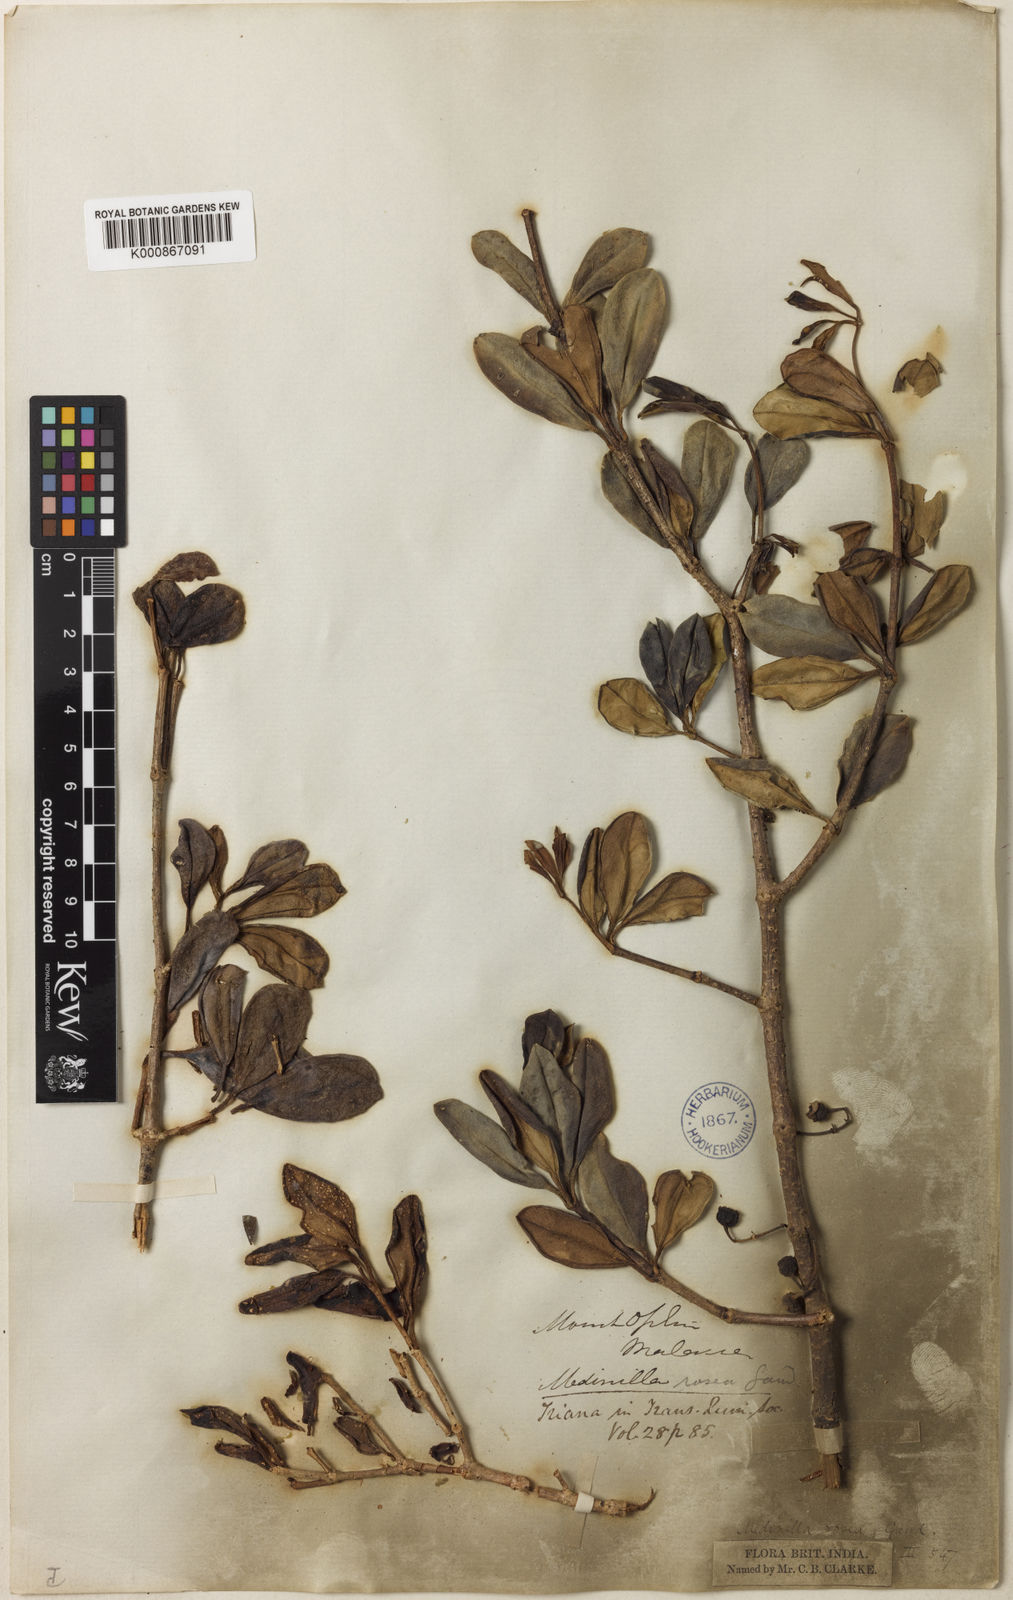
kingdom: Plantae
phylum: Tracheophyta
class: Magnoliopsida
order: Myrtales
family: Melastomataceae
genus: Medinilla
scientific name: Medinilla clarkei
